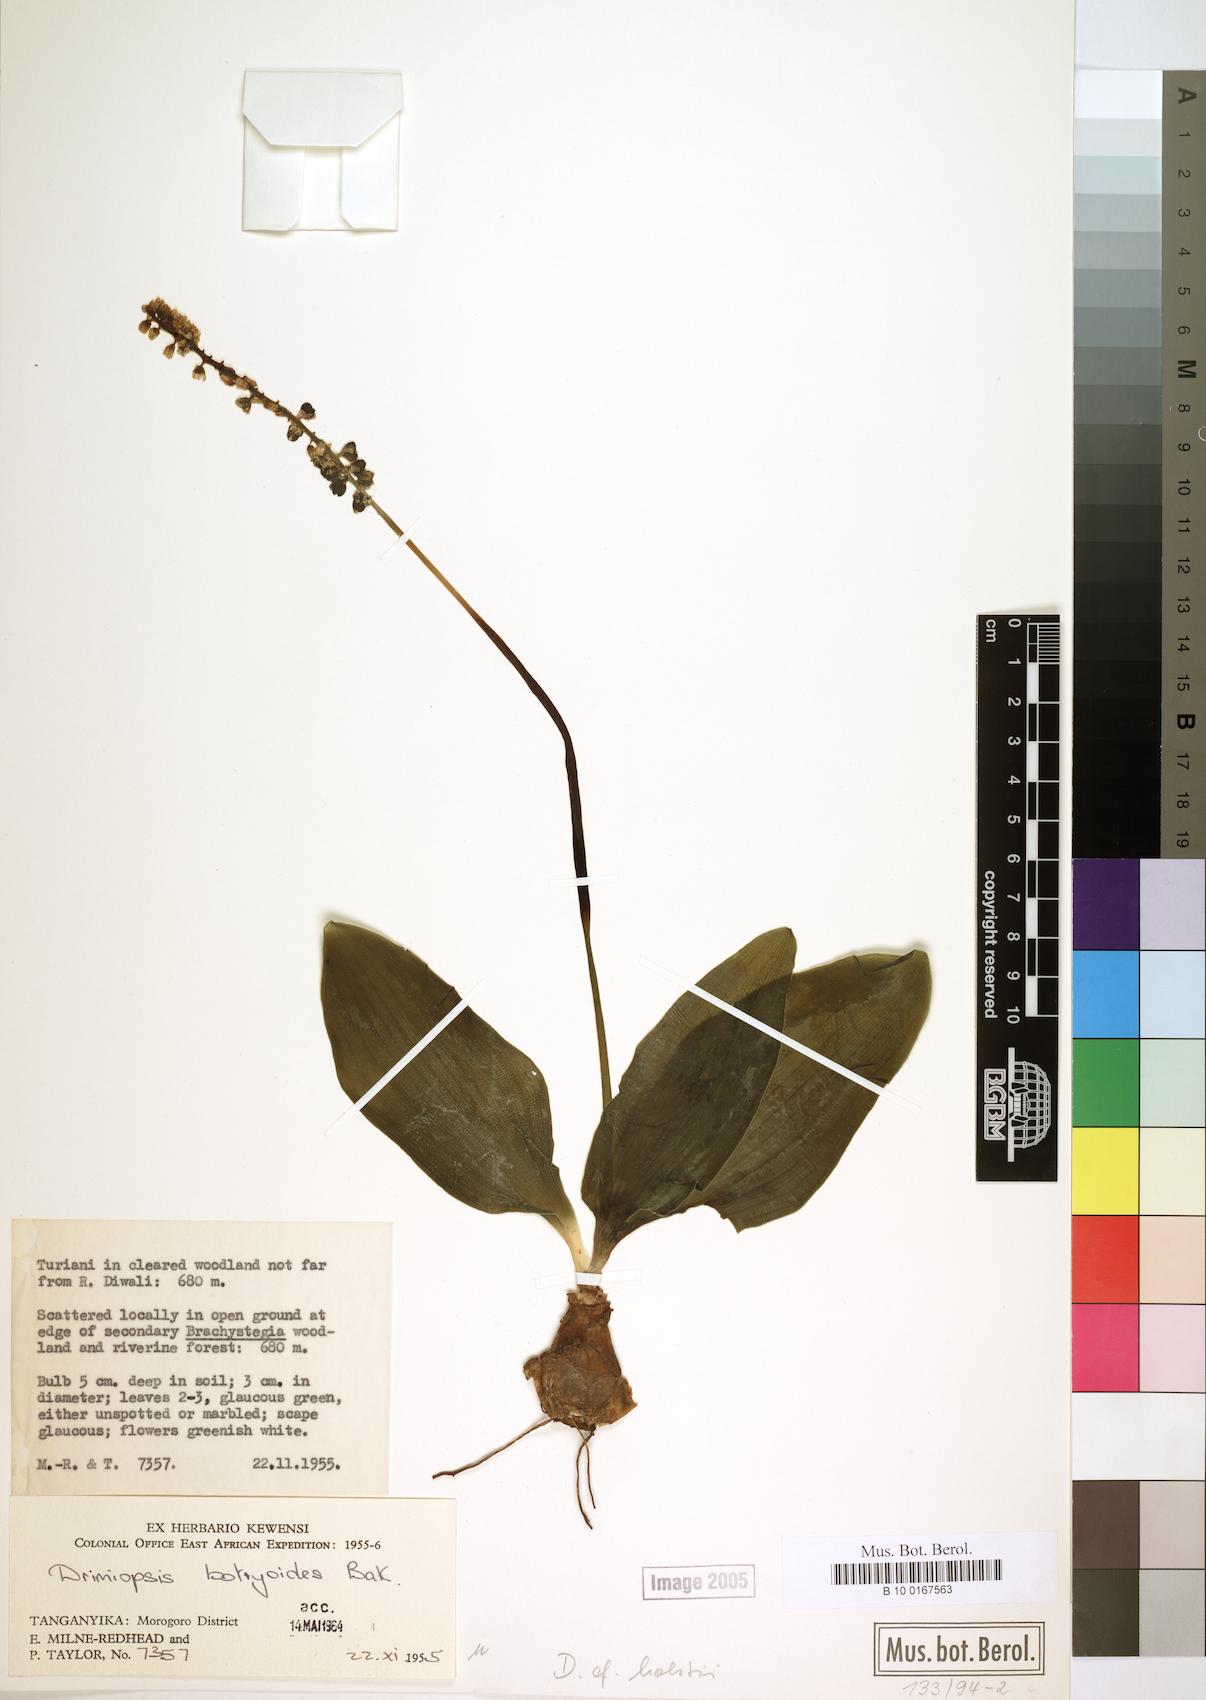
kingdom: Plantae
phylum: Tracheophyta
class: Liliopsida
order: Asparagales
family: Asparagaceae
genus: Drimiopsis
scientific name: Drimiopsis botryoides
